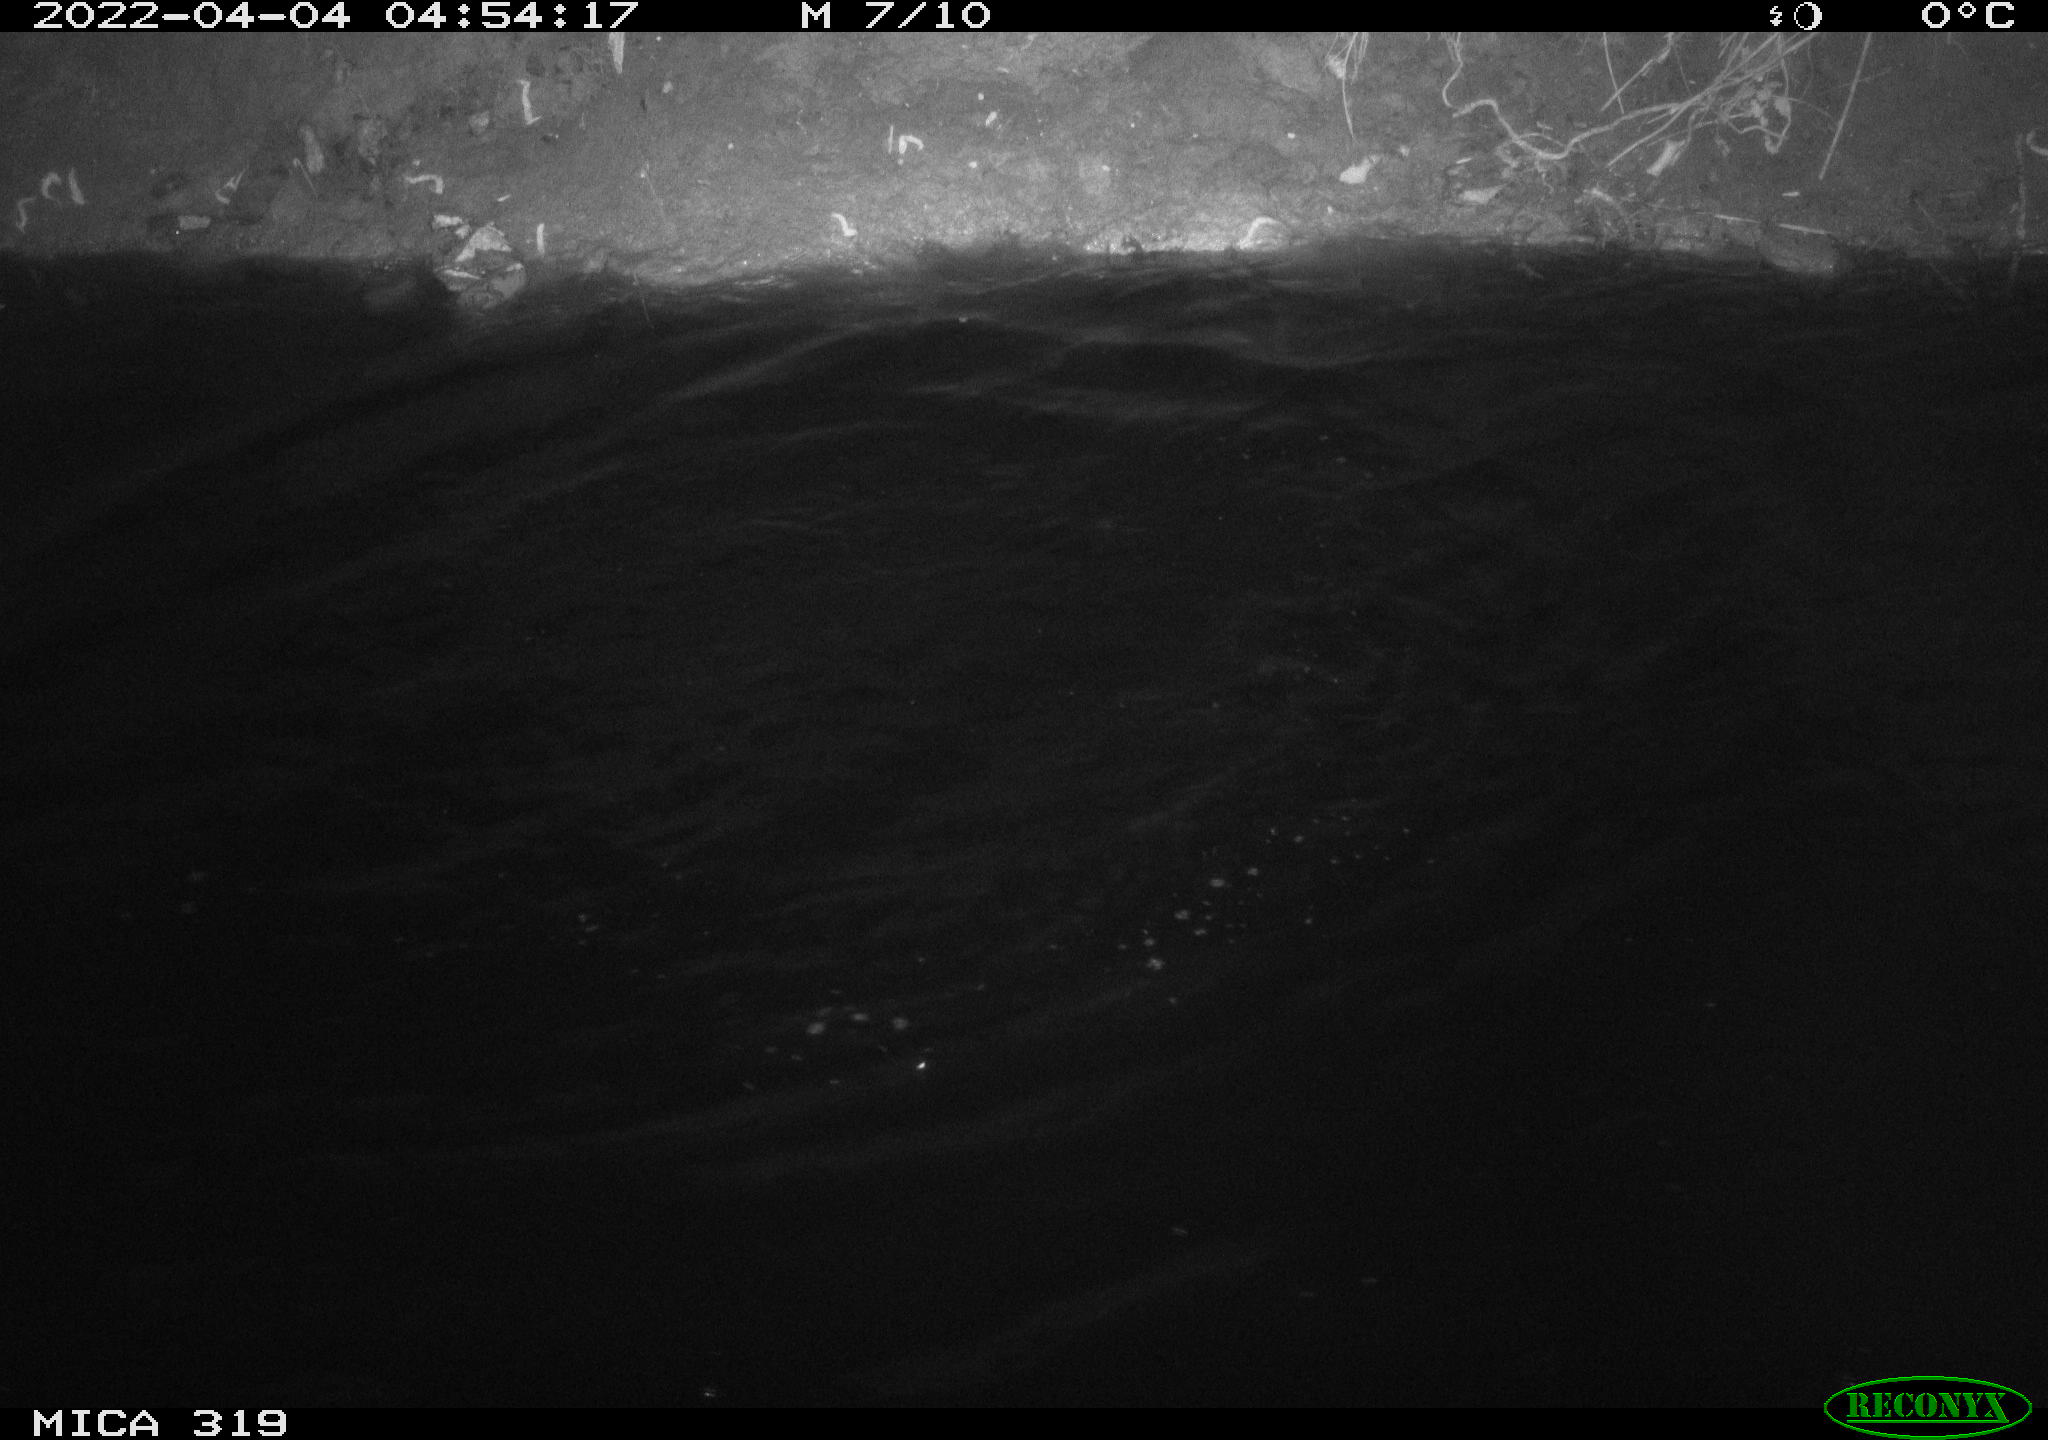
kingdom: Animalia
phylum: Chordata
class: Aves
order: Anseriformes
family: Anatidae
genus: Anas
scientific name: Anas platyrhynchos
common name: Mallard
